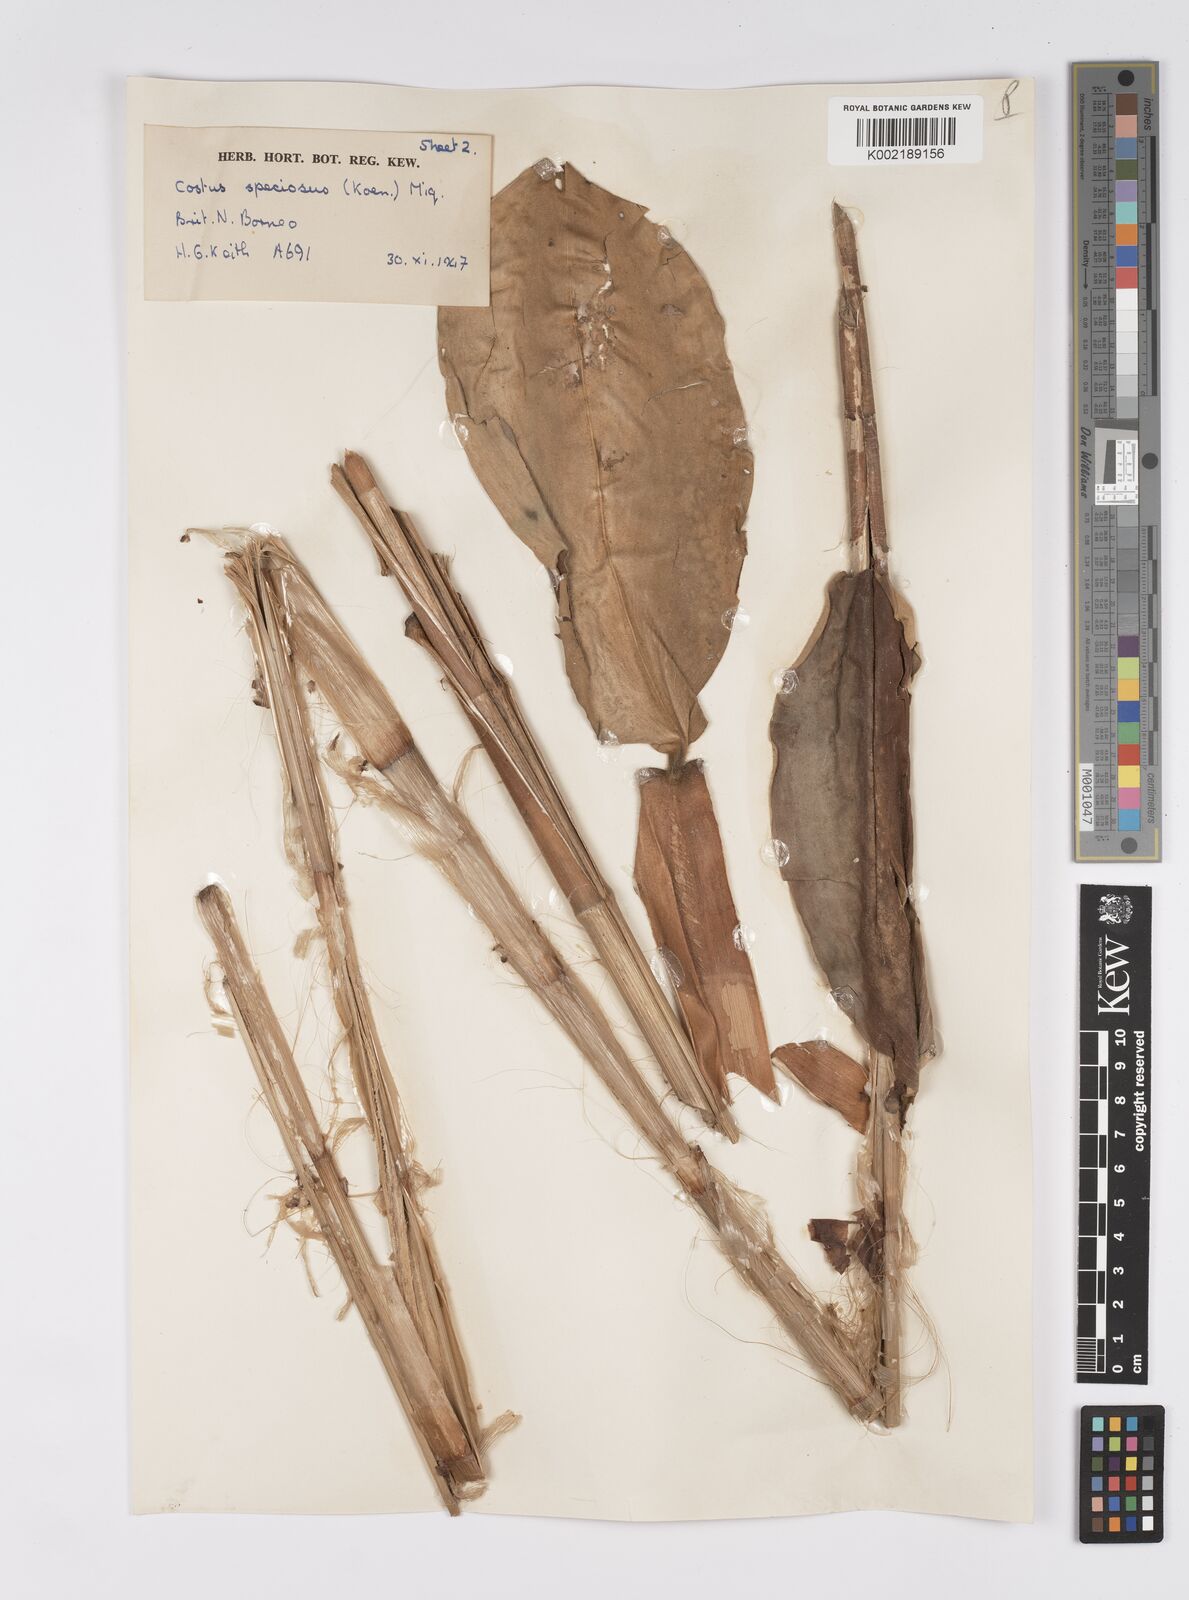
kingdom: Plantae
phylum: Tracheophyta
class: Liliopsida
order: Zingiberales
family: Costaceae
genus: Hellenia
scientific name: Hellenia speciosa
